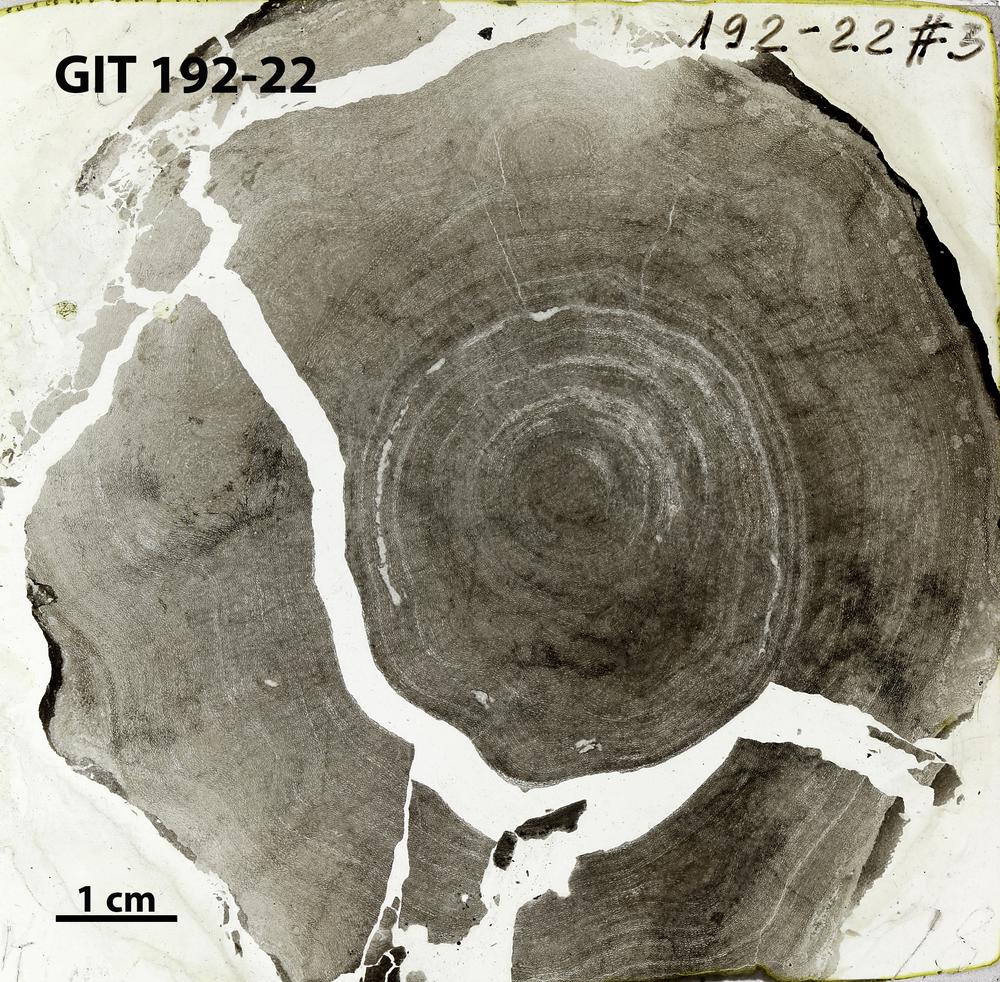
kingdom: Animalia
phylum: Porifera
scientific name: Porifera
